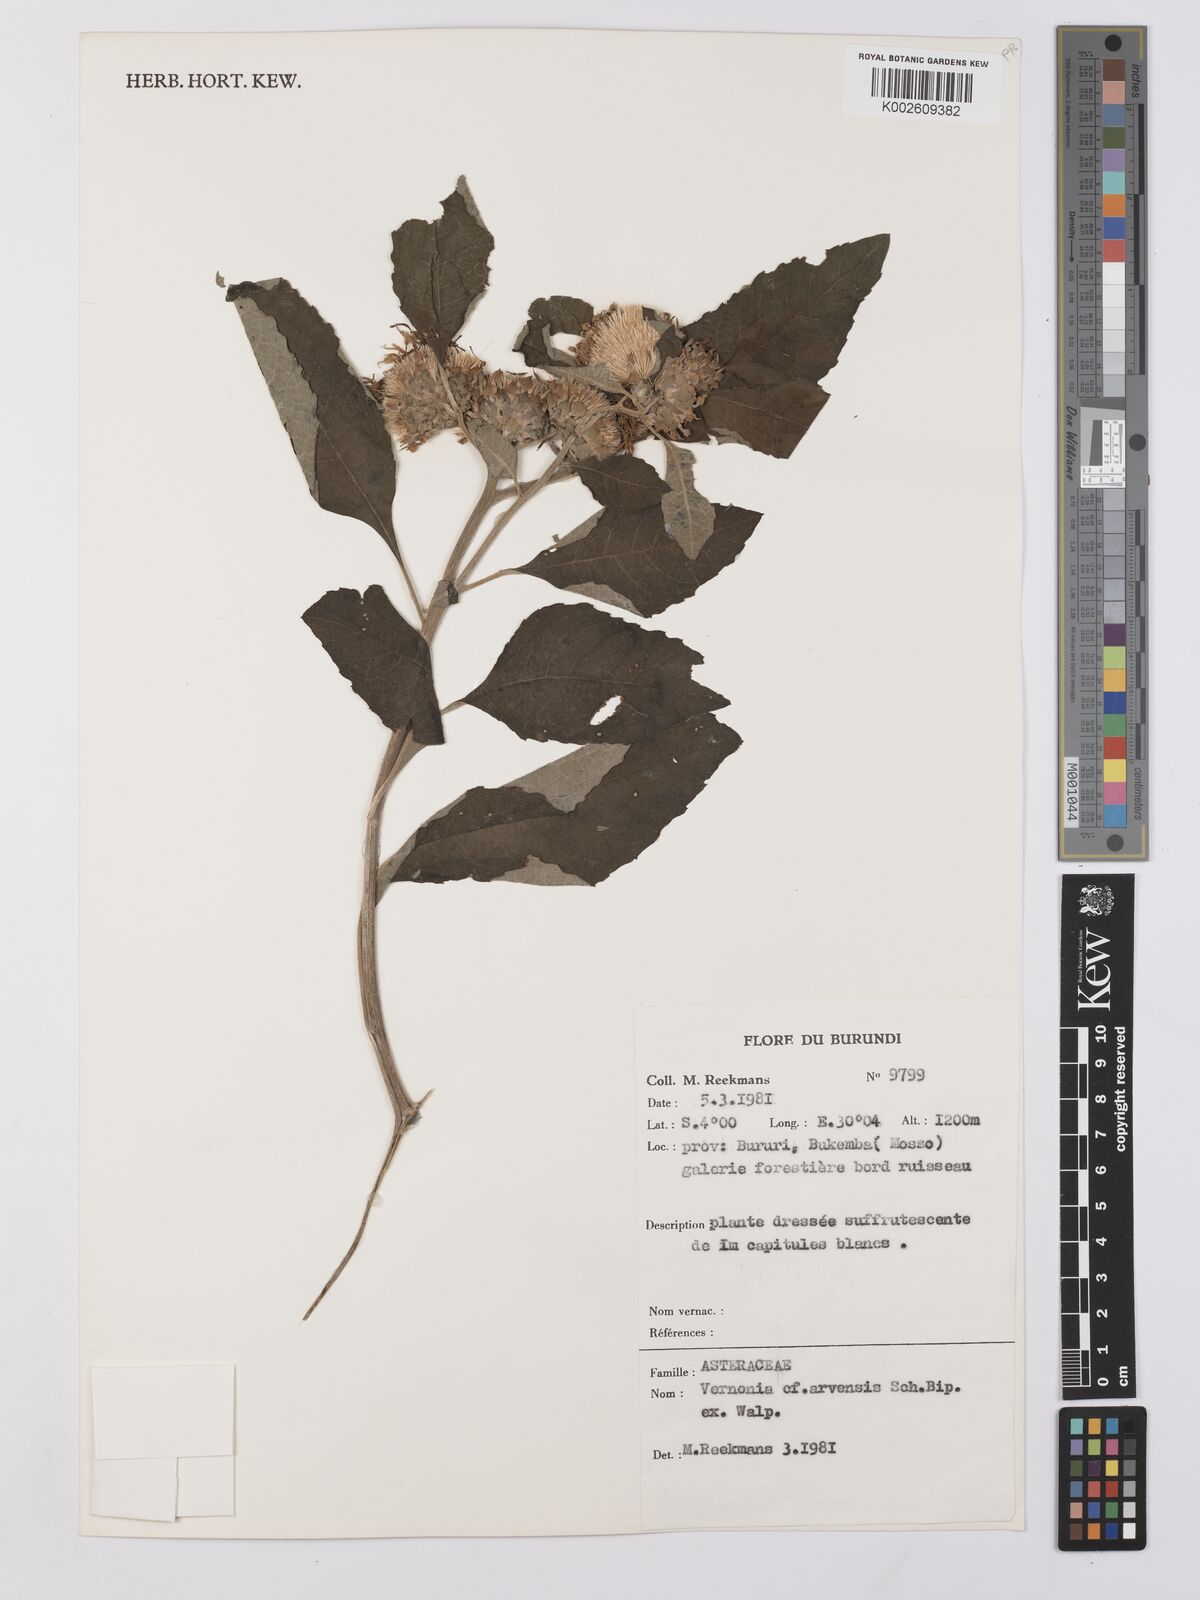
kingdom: Plantae
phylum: Tracheophyta
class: Magnoliopsida
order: Asterales
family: Asteraceae
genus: Vernonia
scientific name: Vernonia
